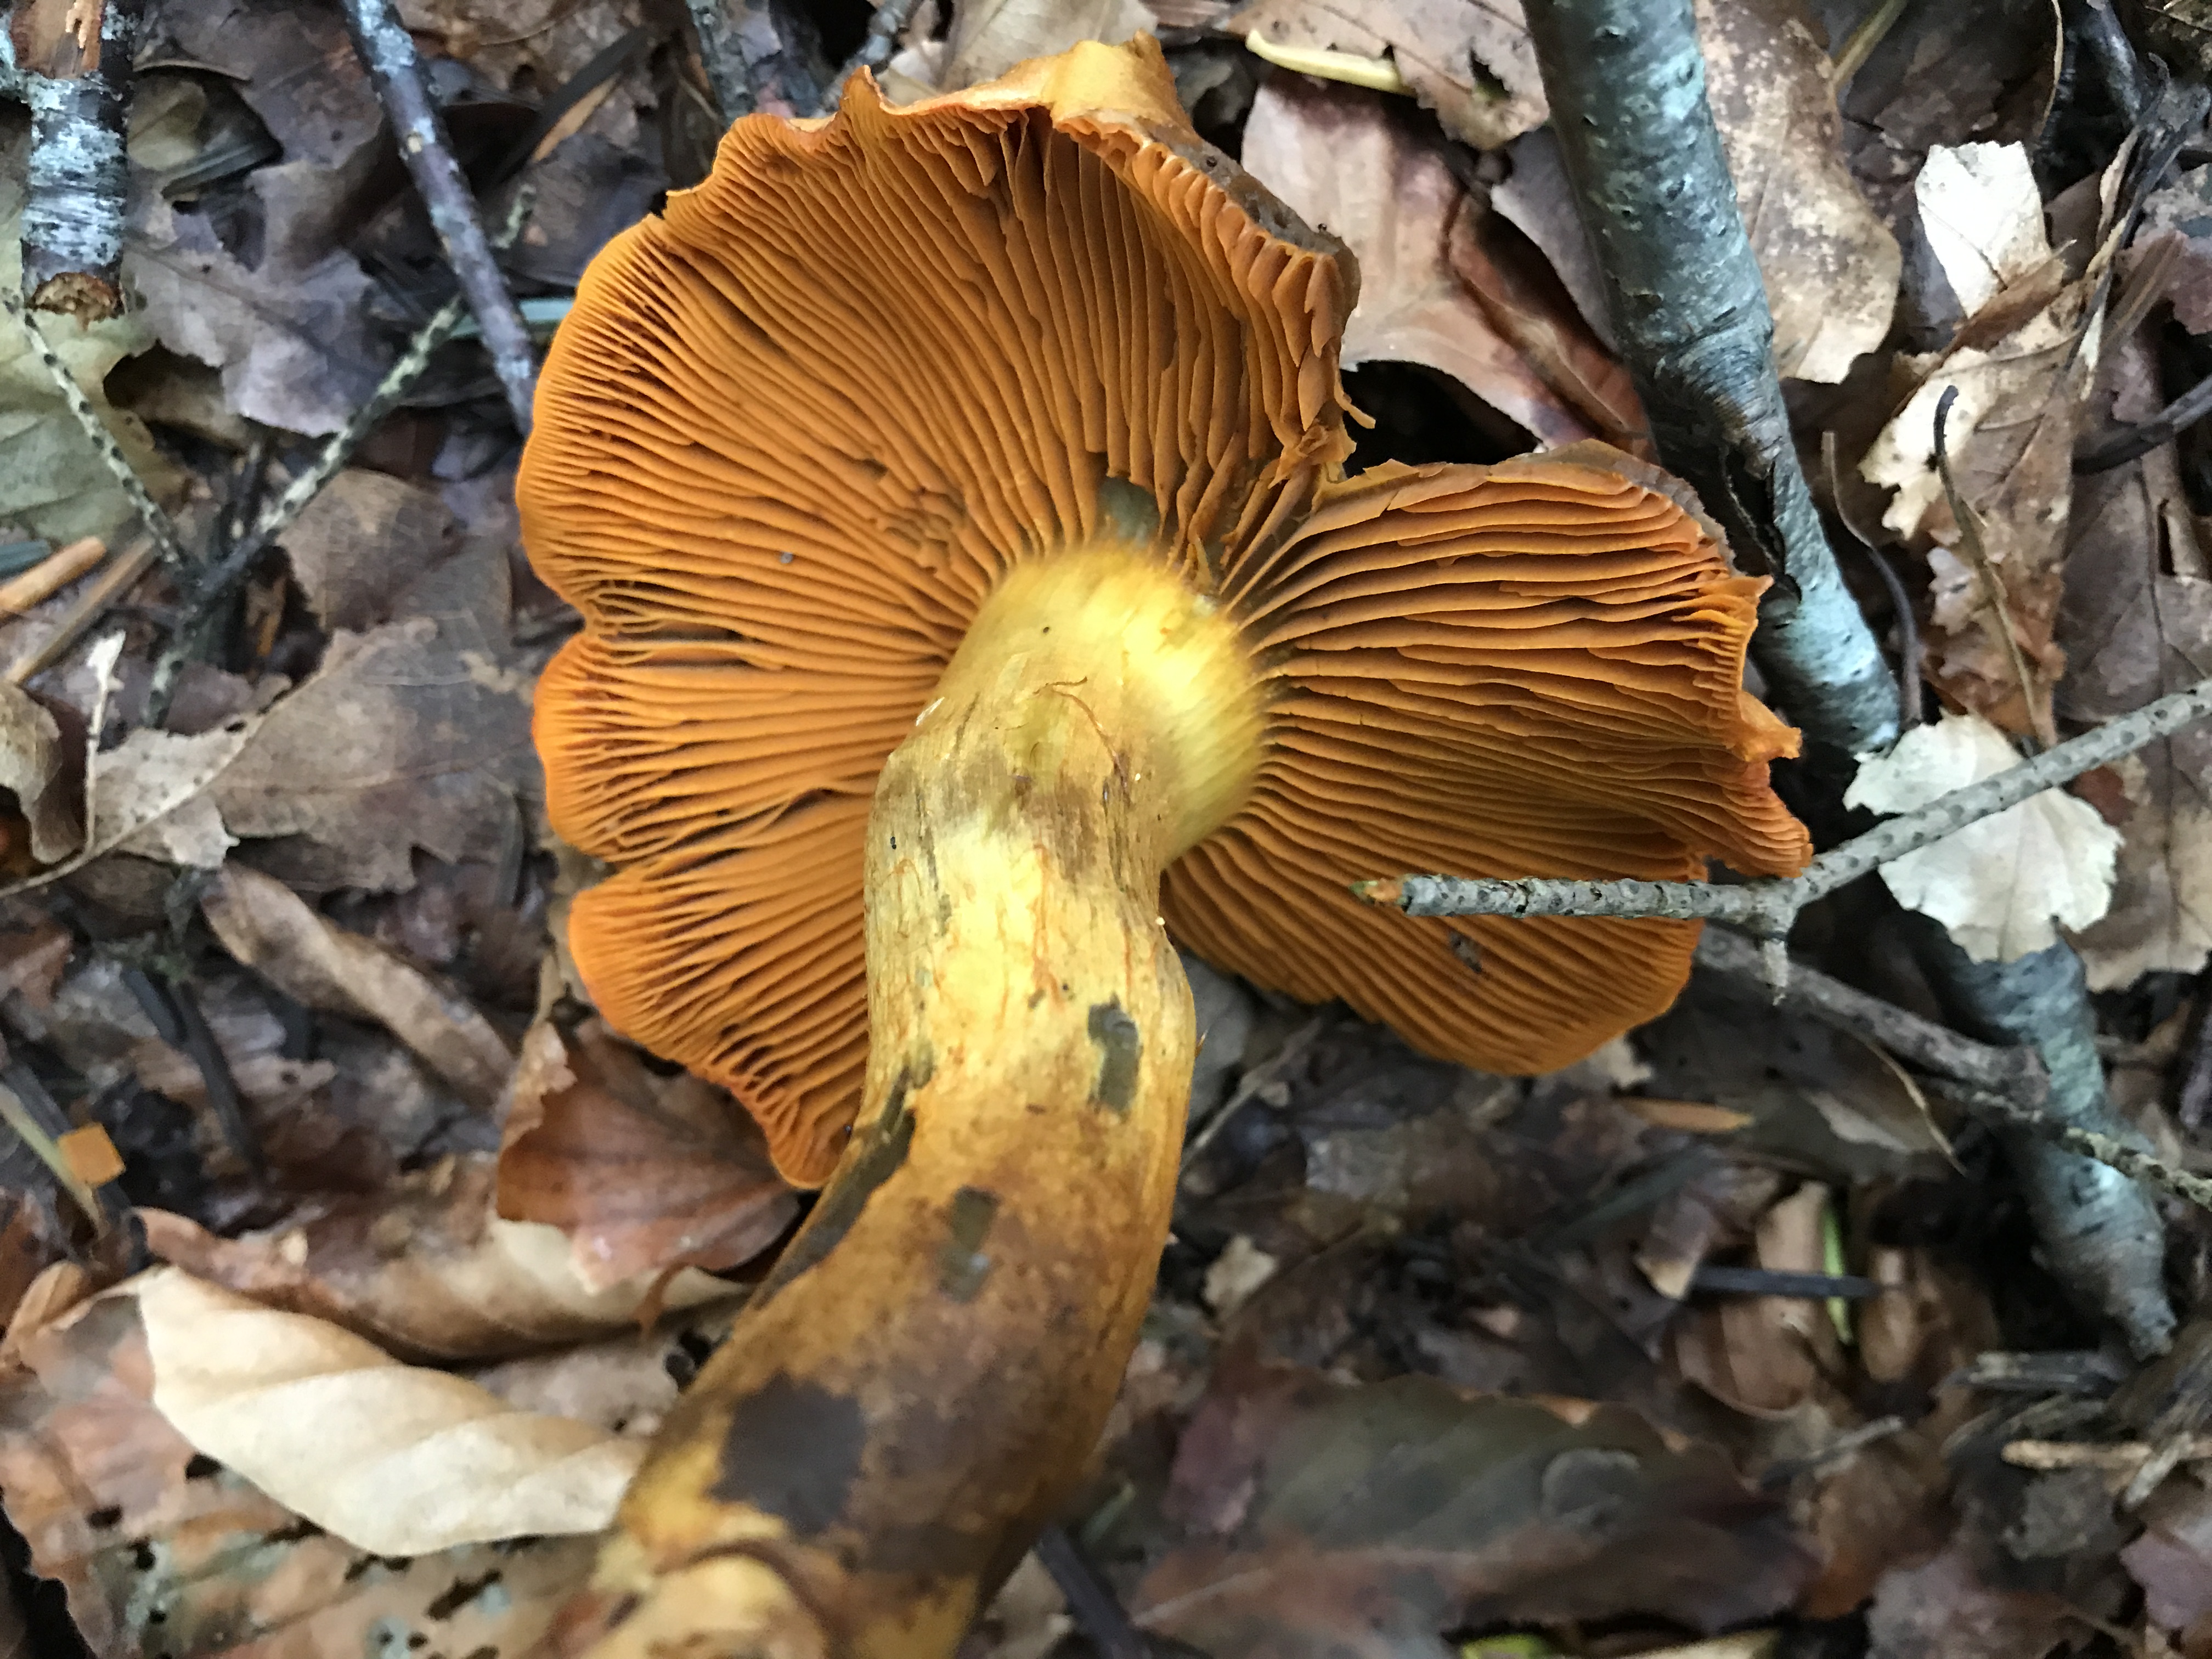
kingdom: Fungi
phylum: Basidiomycota
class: Agaricomycetes
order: Agaricales
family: Cortinariaceae
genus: Cortinarius
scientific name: Cortinarius malicorius
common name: grønkødet slørhat
